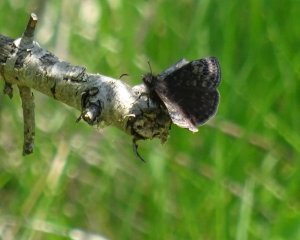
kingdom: Animalia
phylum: Arthropoda
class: Insecta
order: Lepidoptera
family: Hesperiidae
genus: Erynnis
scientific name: Erynnis icelus
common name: Dreamy Duskywing
